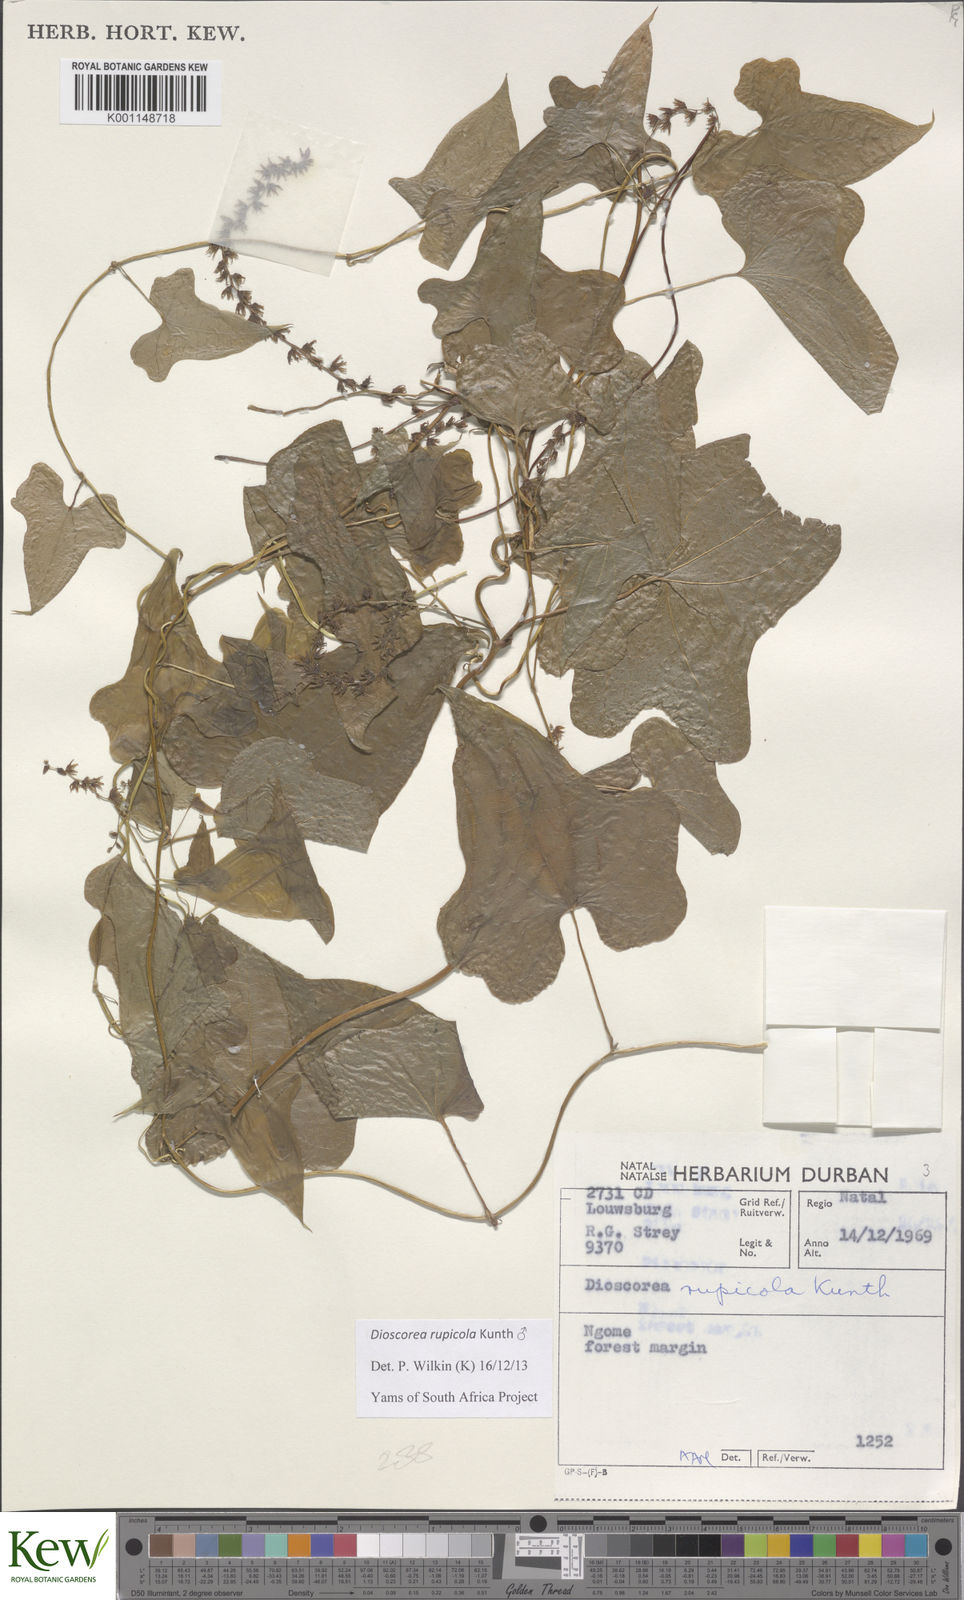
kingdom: Plantae
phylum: Tracheophyta
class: Liliopsida
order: Dioscoreales
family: Dioscoreaceae
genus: Dioscorea
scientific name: Dioscorea rupicola
